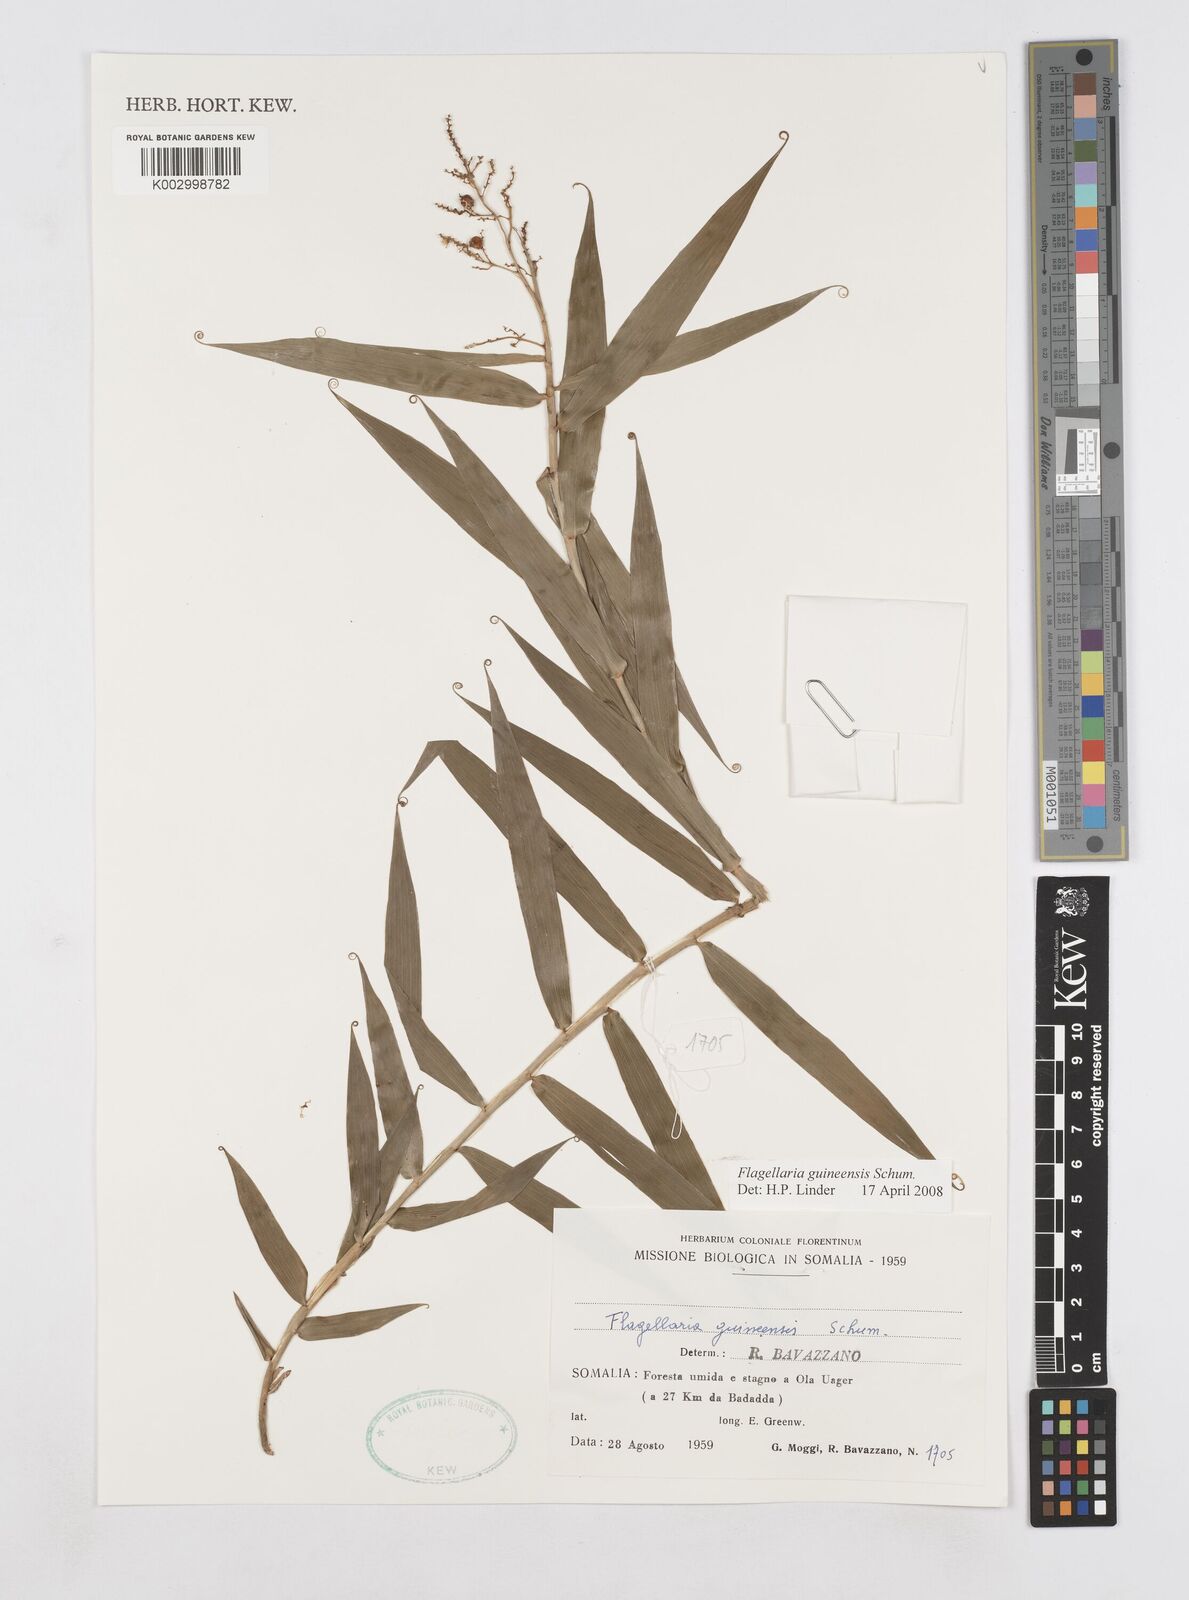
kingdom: Plantae
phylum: Tracheophyta
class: Liliopsida
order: Poales
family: Flagellariaceae
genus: Flagellaria
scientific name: Flagellaria guineensis
